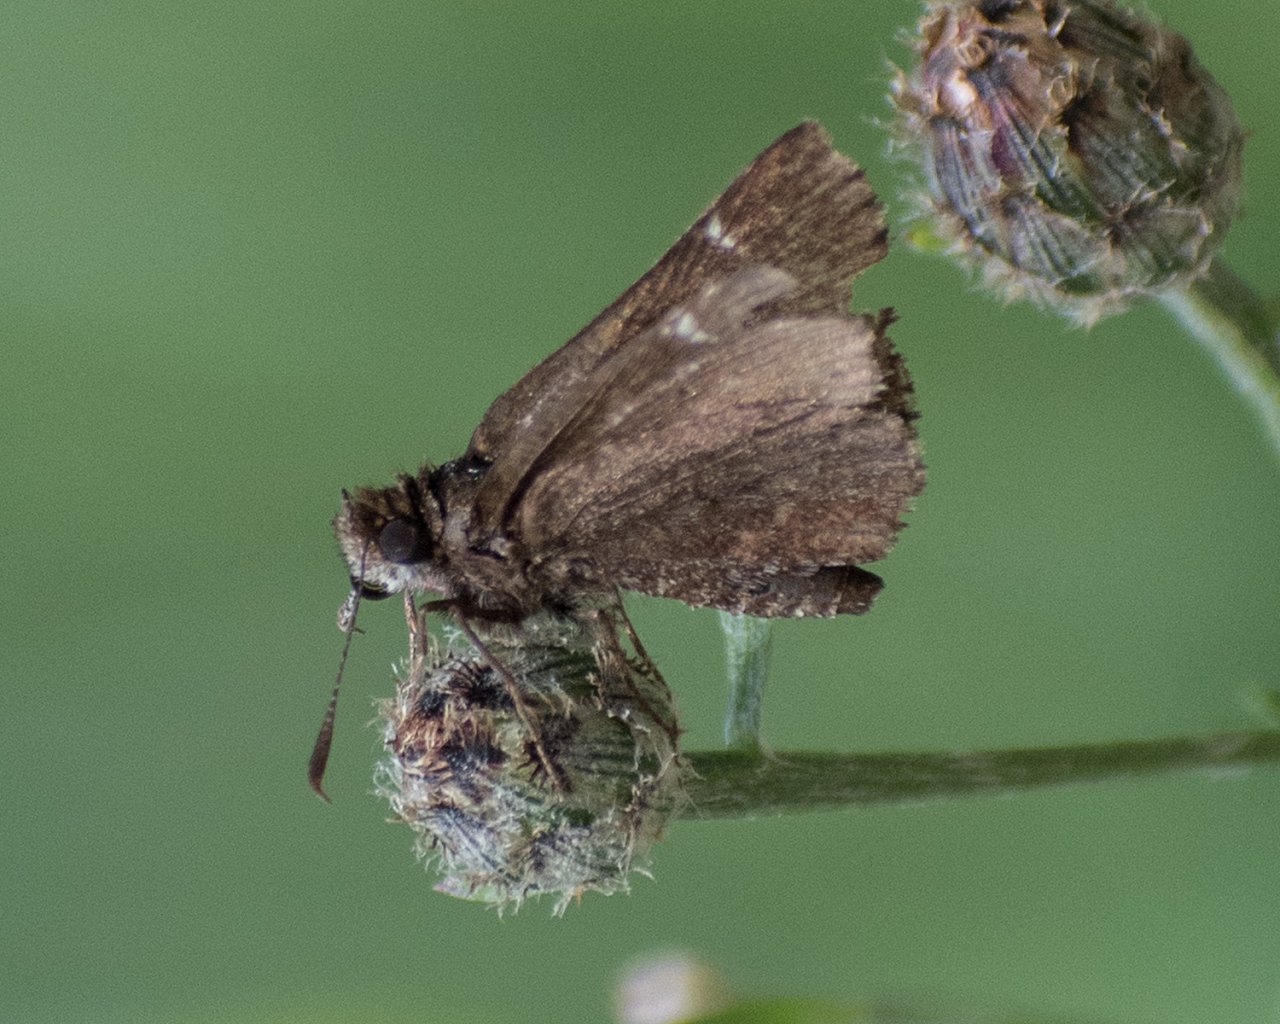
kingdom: Animalia
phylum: Arthropoda
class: Insecta
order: Lepidoptera
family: Hesperiidae
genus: Mastor
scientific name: Mastor vialis
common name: Common Roadside-Skipper
